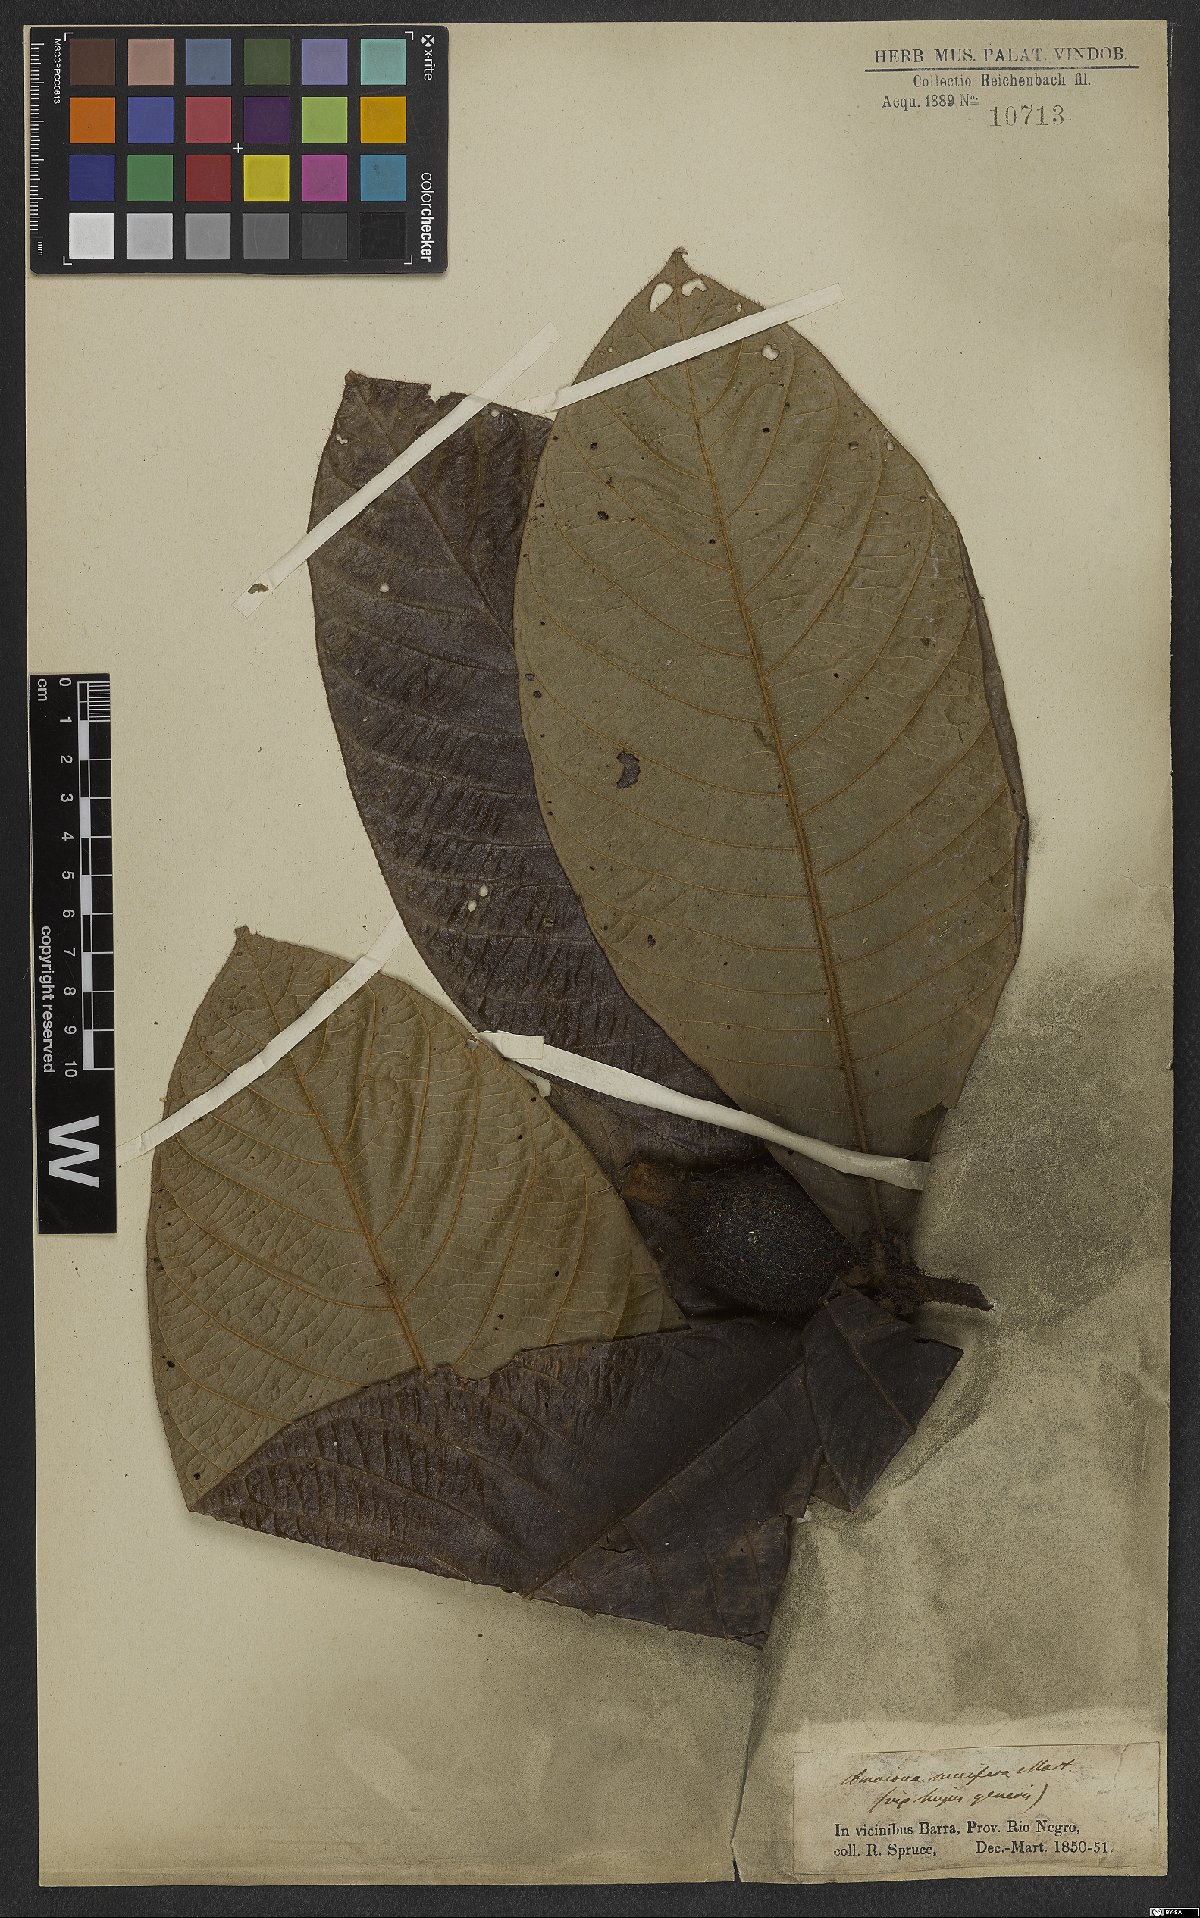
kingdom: Plantae
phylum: Tracheophyta
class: Magnoliopsida
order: Gentianales
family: Rubiaceae
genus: Duroia
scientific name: Duroia saccifera
